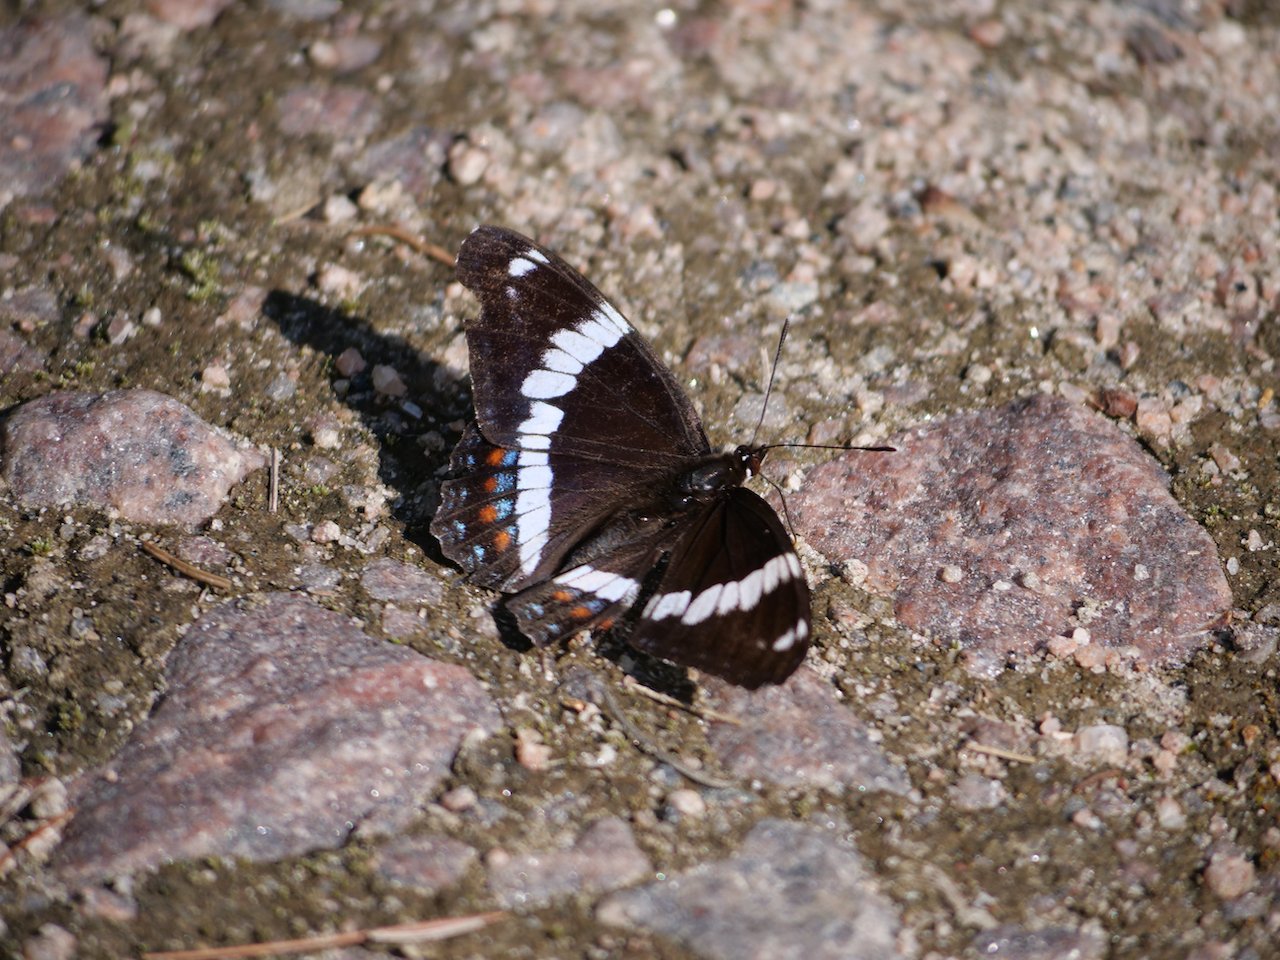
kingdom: Animalia
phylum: Arthropoda
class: Insecta
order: Lepidoptera
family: Nymphalidae
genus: Limenitis
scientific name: Limenitis arthemis
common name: Red-spotted Admiral
